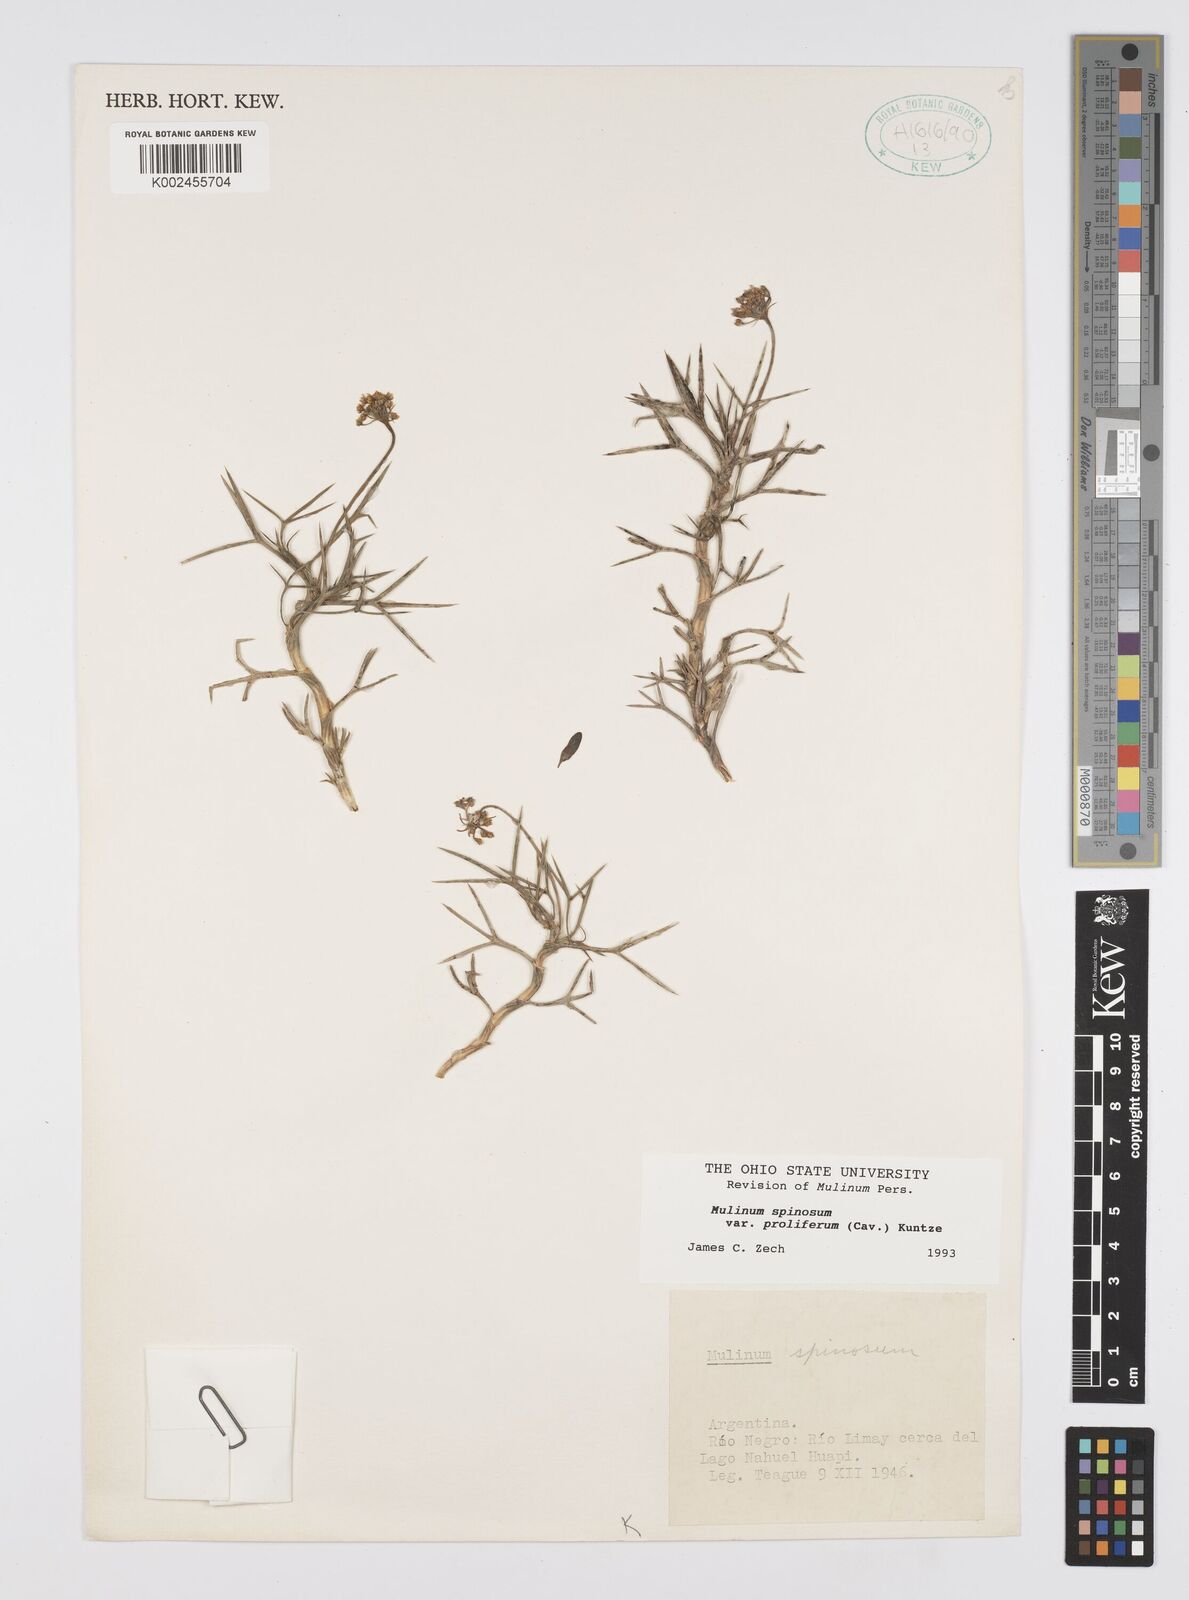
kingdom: Plantae
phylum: Tracheophyta
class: Magnoliopsida
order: Apiales
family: Apiaceae
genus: Azorella
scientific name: Azorella prolifera
